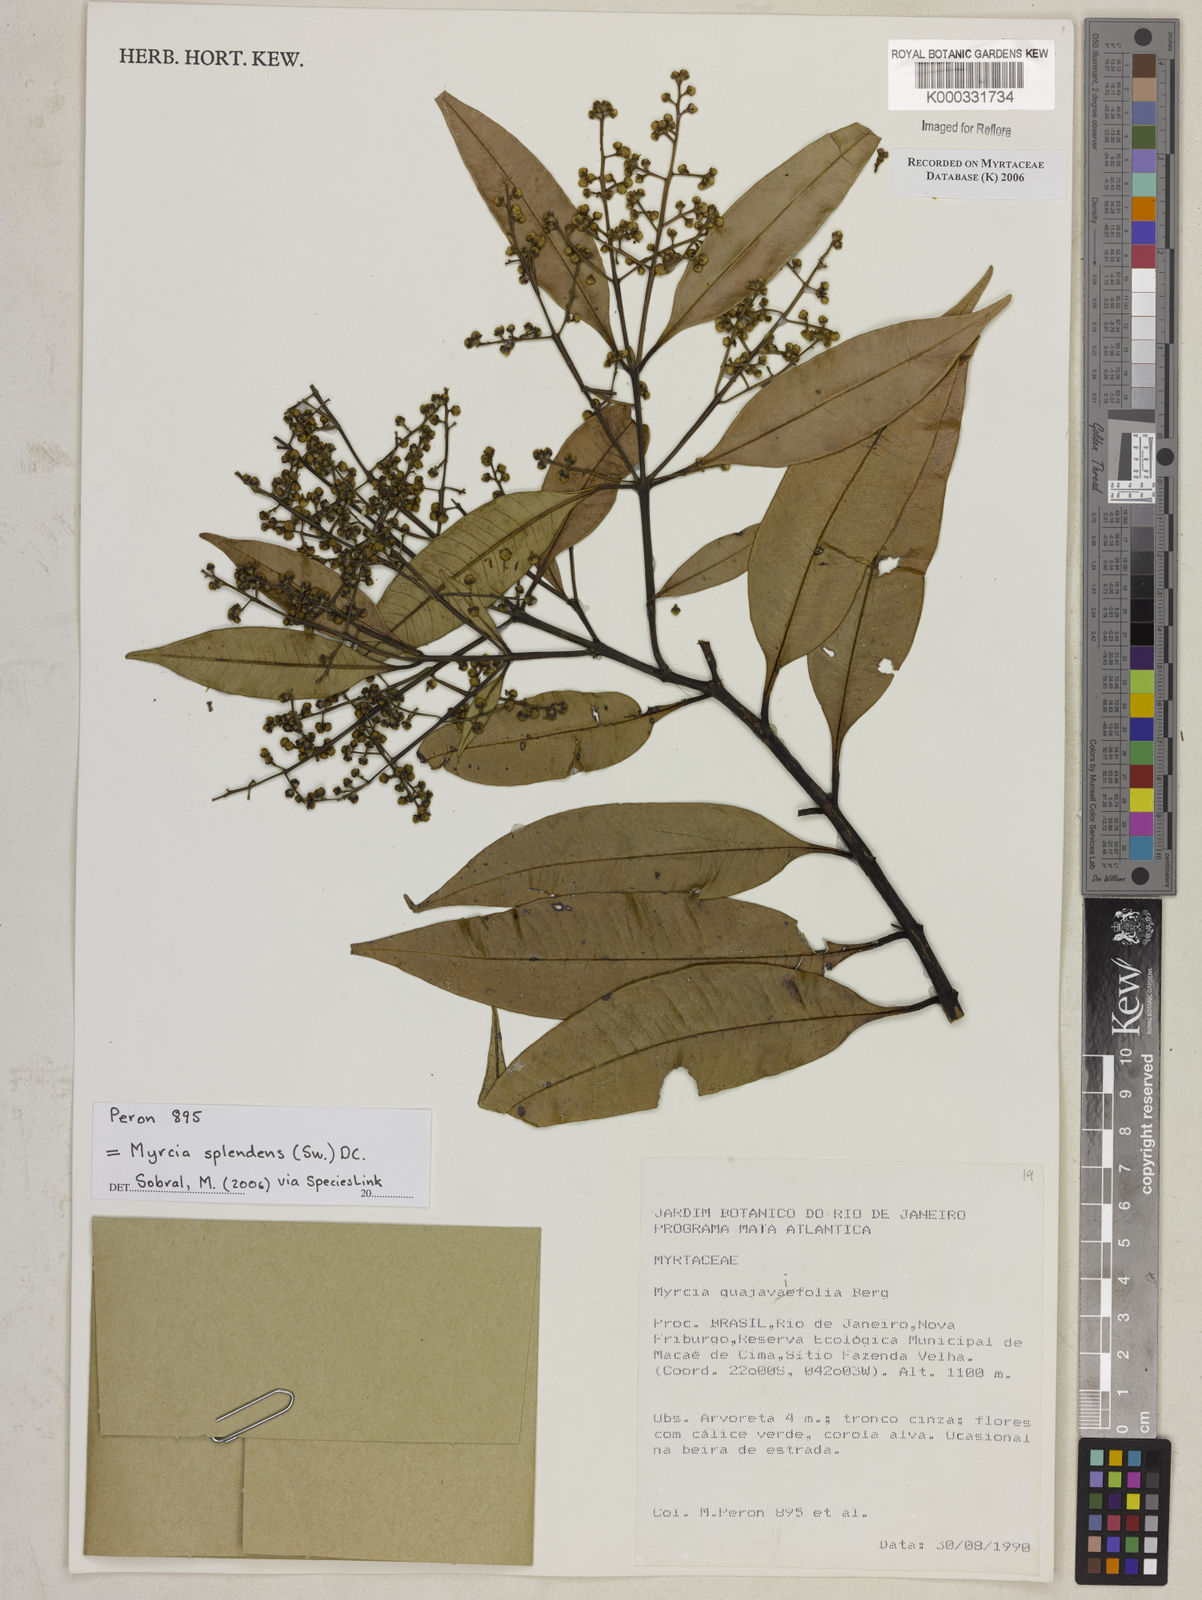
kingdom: Plantae
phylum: Tracheophyta
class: Magnoliopsida
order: Myrtales
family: Myrtaceae
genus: Myrcia
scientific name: Myrcia splendens
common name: Surinam cherry
